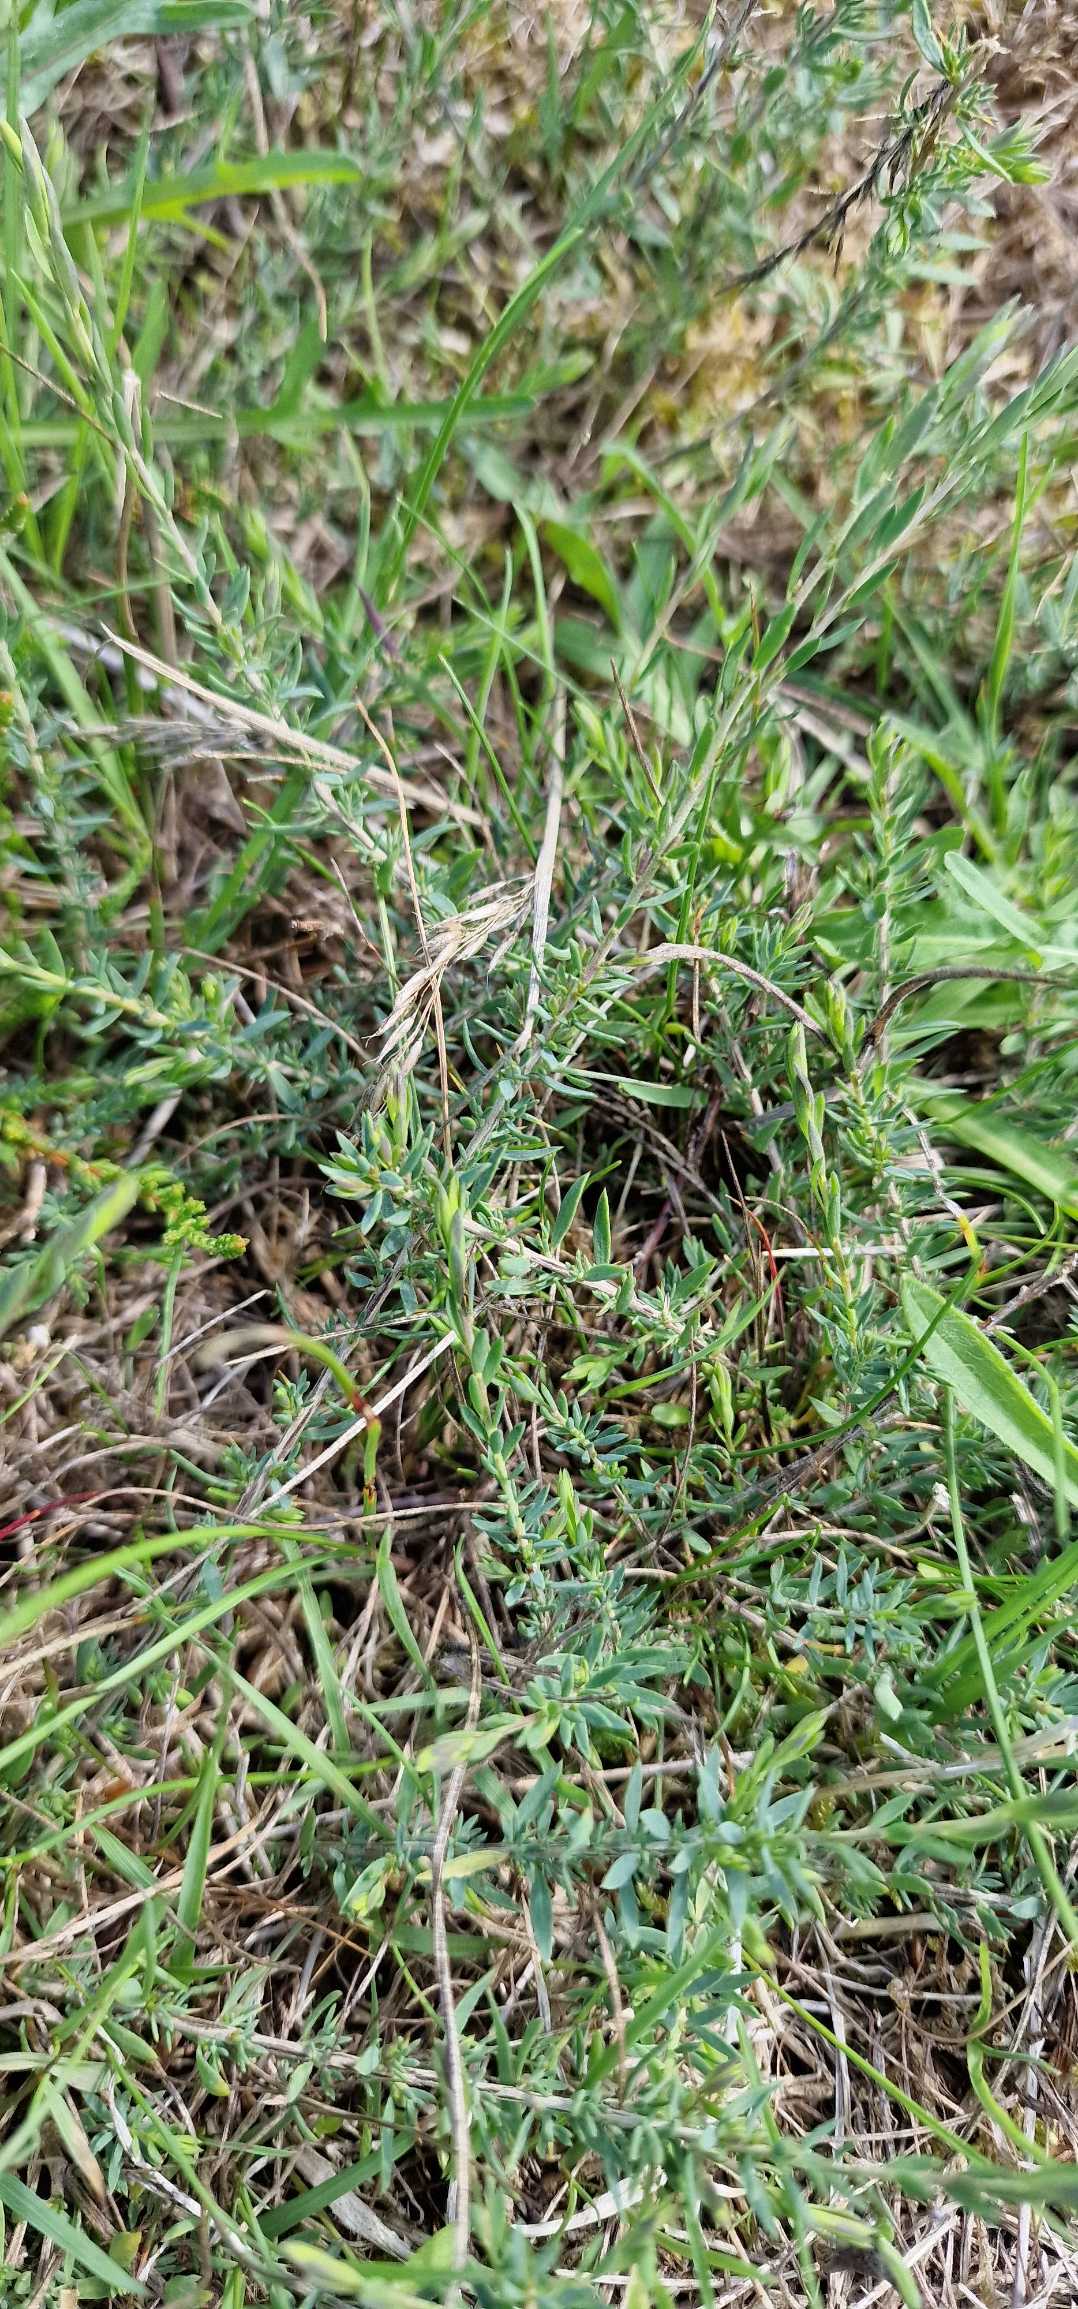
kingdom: Plantae
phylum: Tracheophyta
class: Magnoliopsida
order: Fabales
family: Fabaceae
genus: Genista
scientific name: Genista anglica
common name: Engelsk visse
